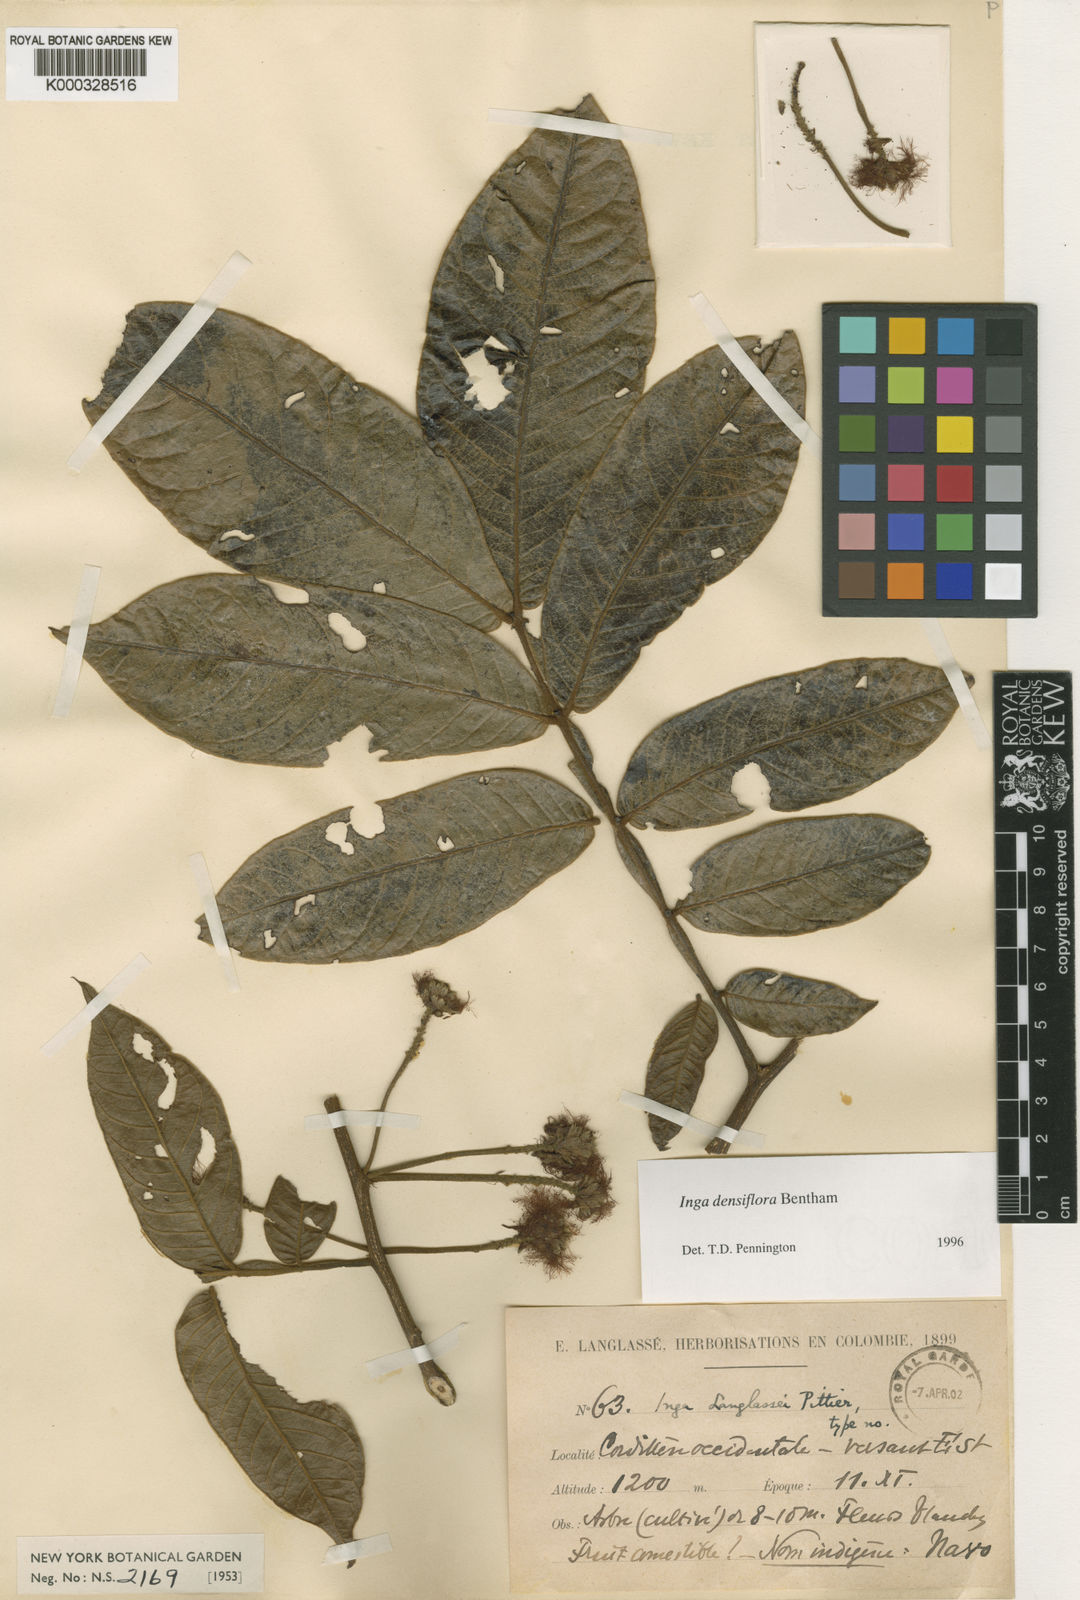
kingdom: Plantae
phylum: Tracheophyta
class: Magnoliopsida
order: Fabales
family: Fabaceae
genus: Inga
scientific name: Inga densiflora
